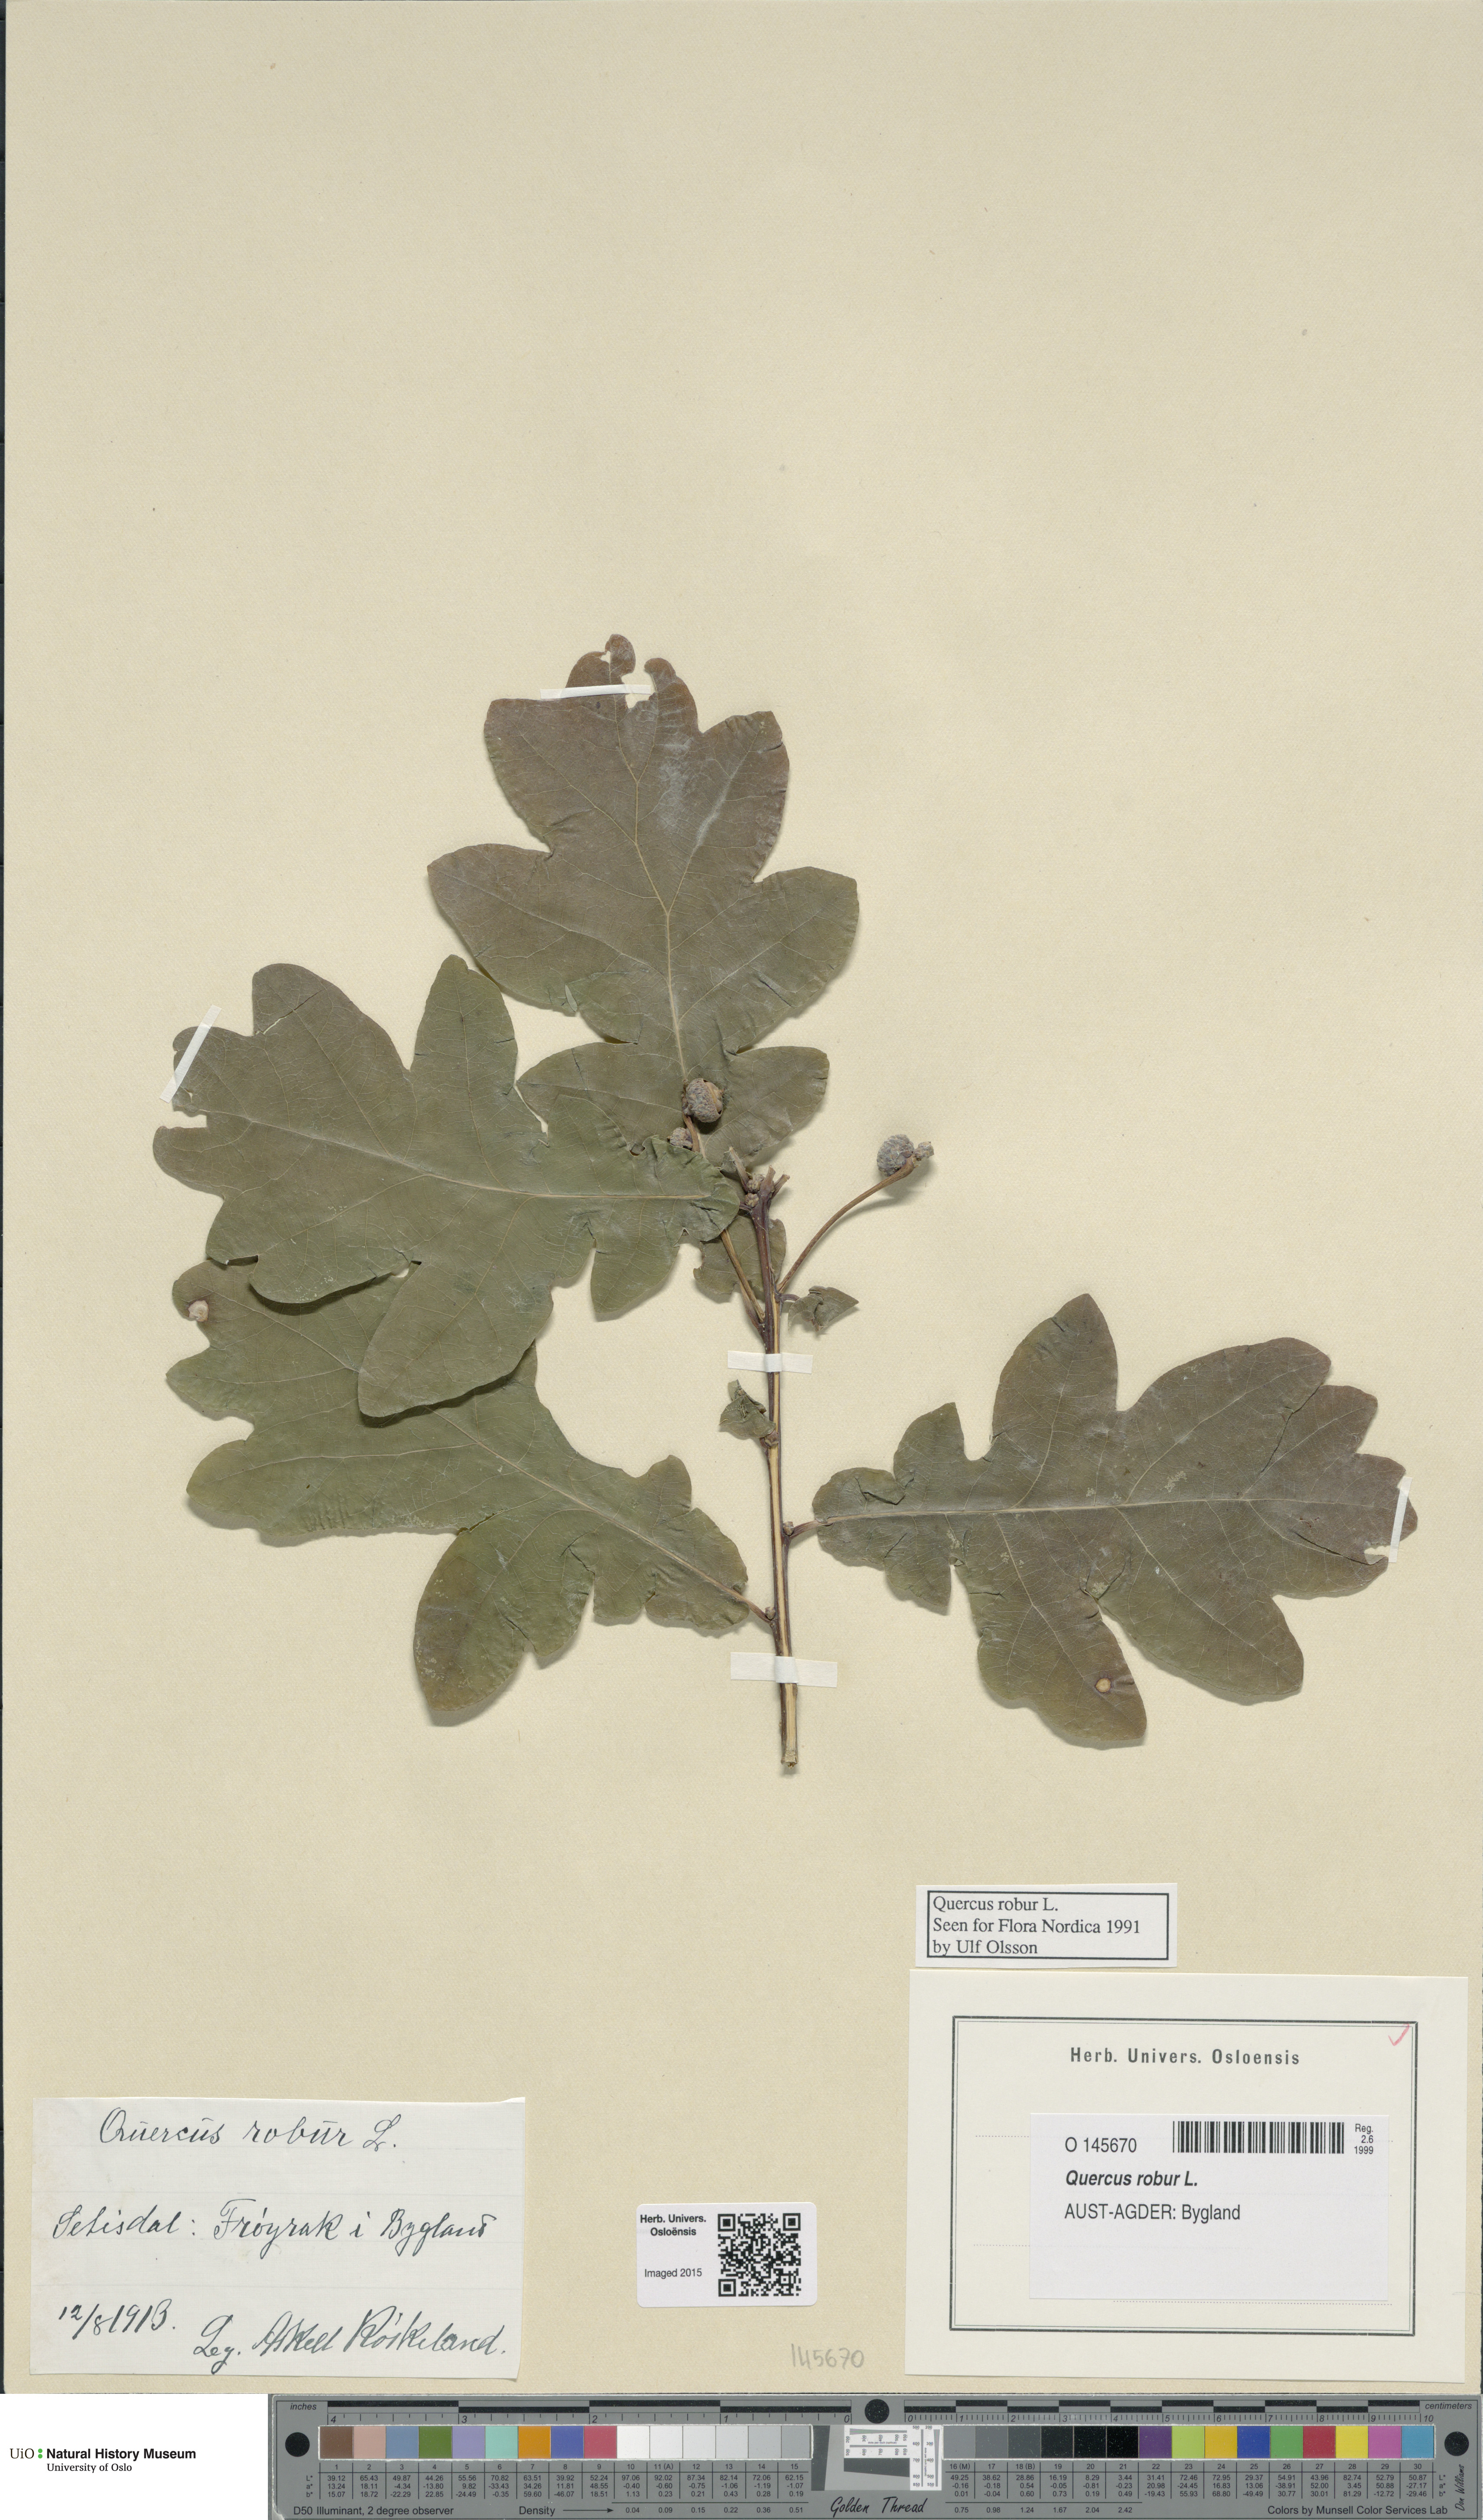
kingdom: Plantae
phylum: Tracheophyta
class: Magnoliopsida
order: Fagales
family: Fagaceae
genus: Quercus
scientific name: Quercus robur
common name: Pedunculate oak
